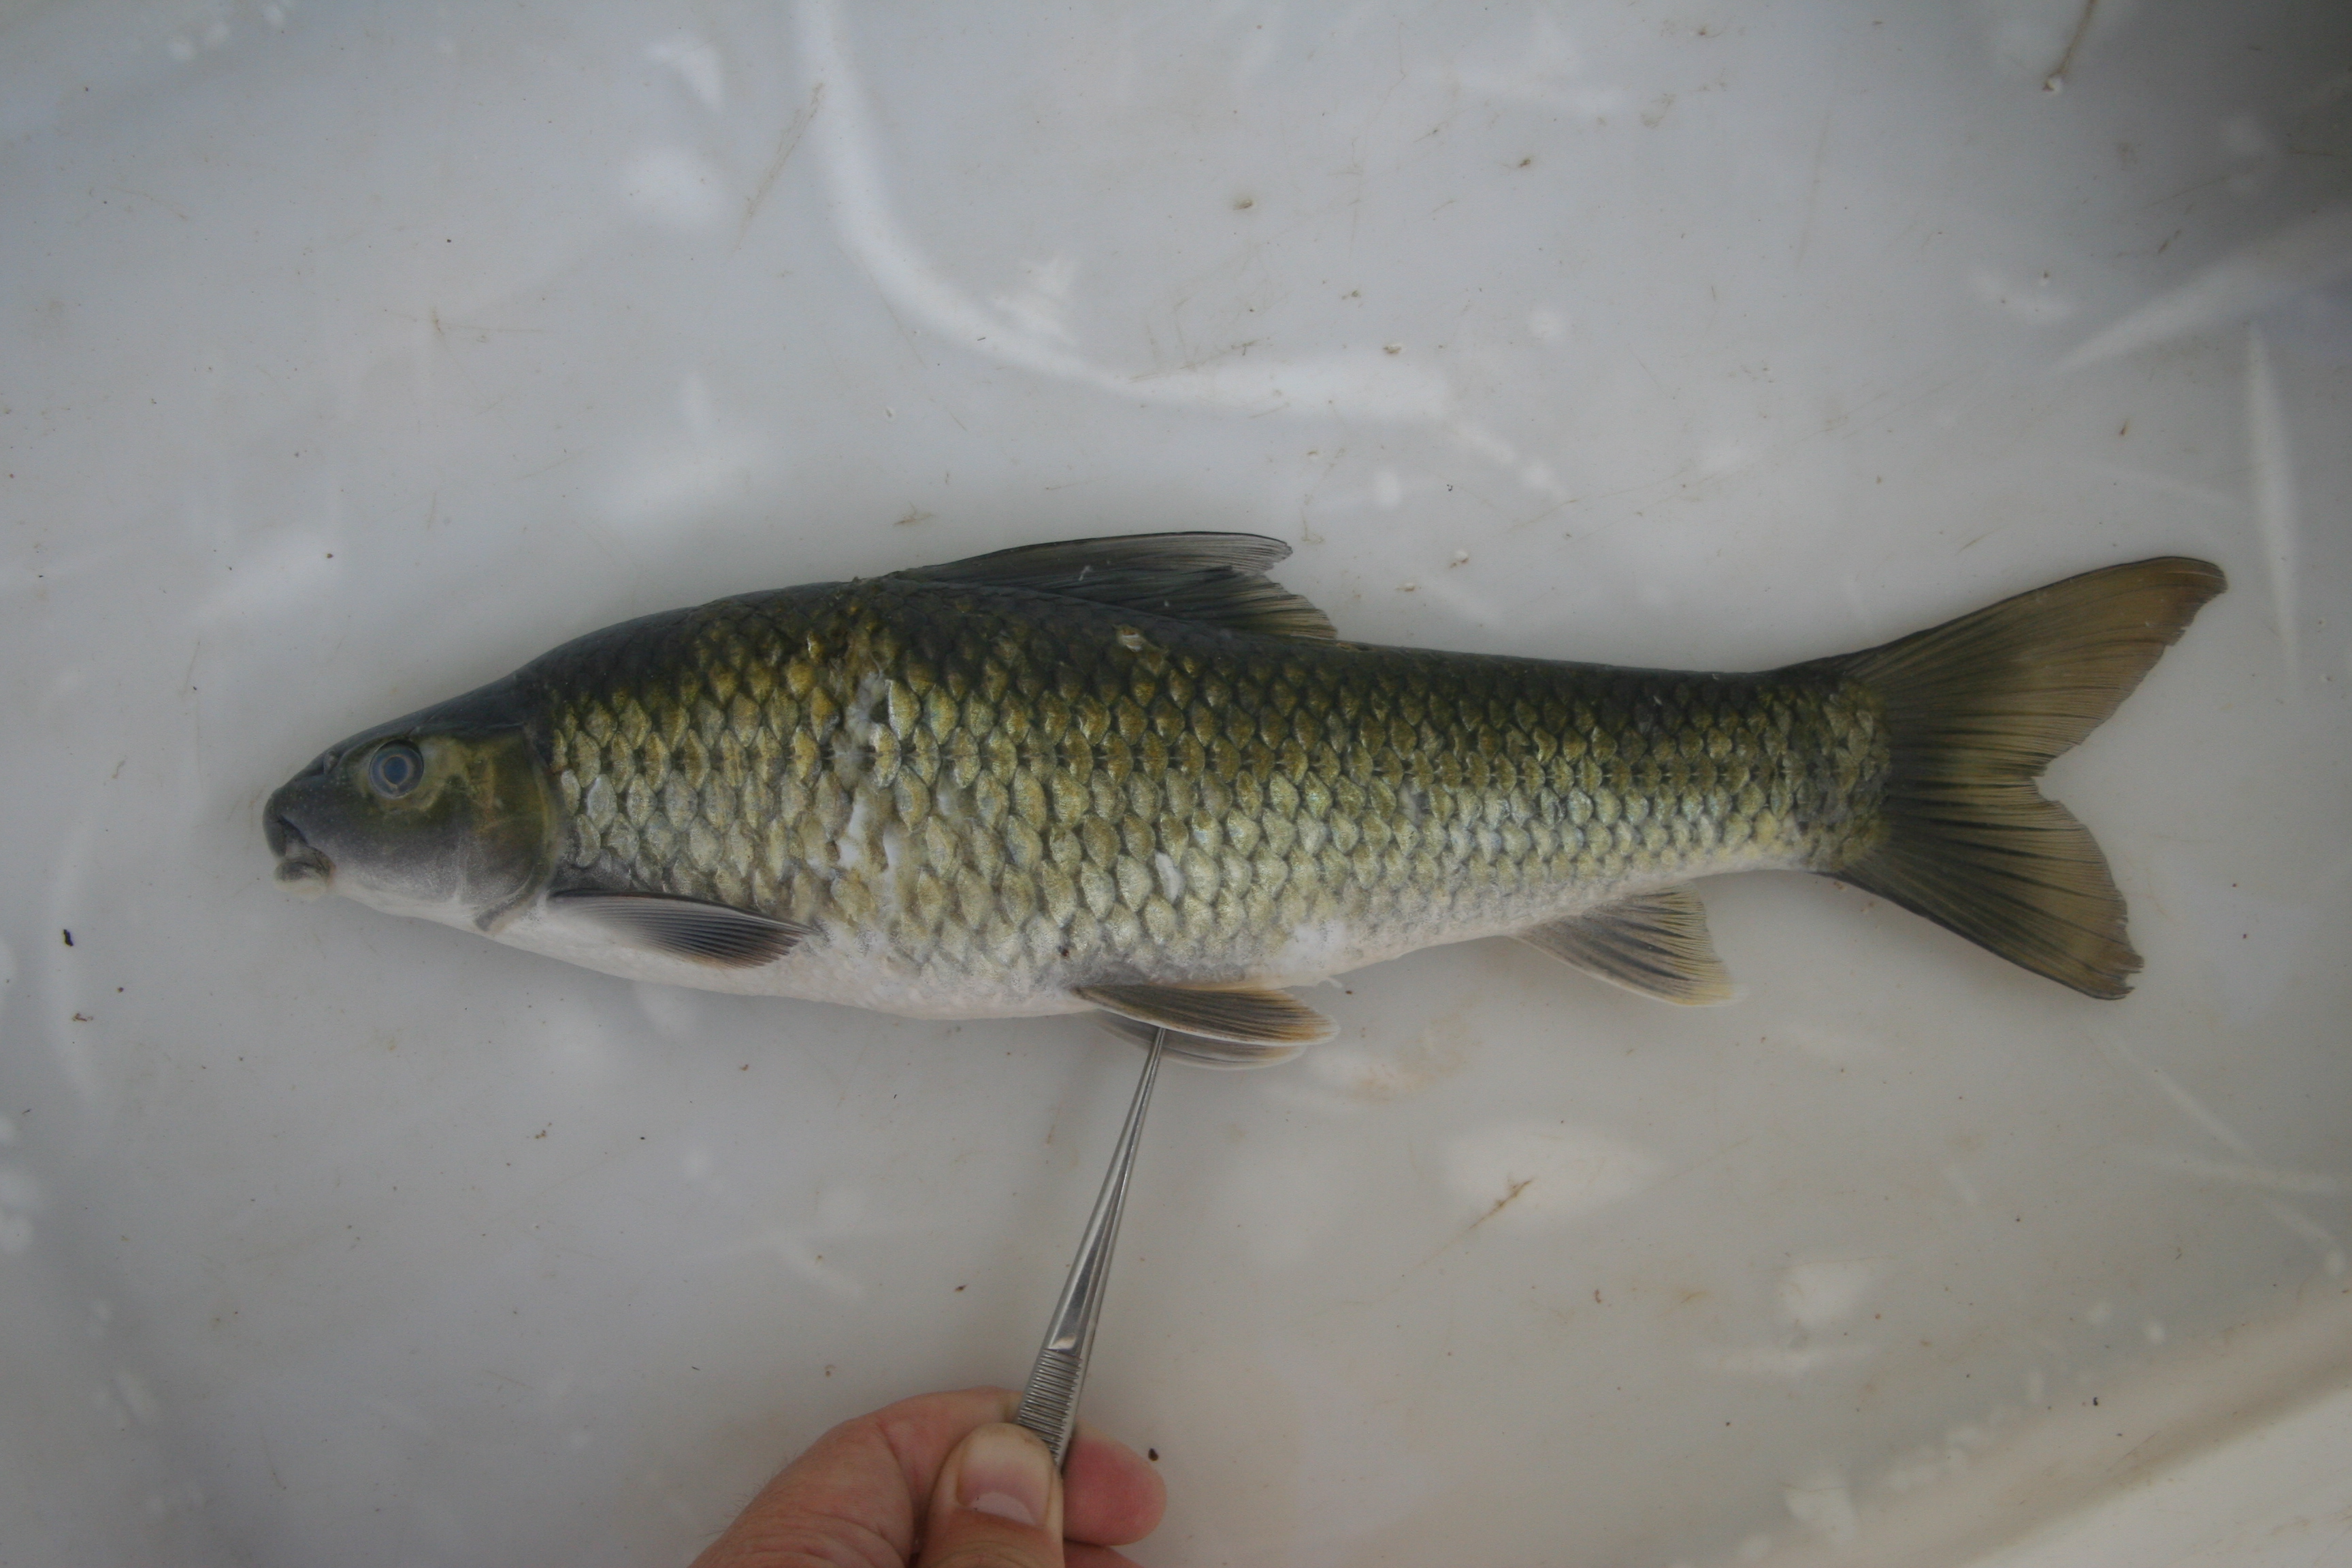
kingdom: Animalia
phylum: Chordata
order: Cypriniformes
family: Cyprinidae
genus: Labeo
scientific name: Labeo
